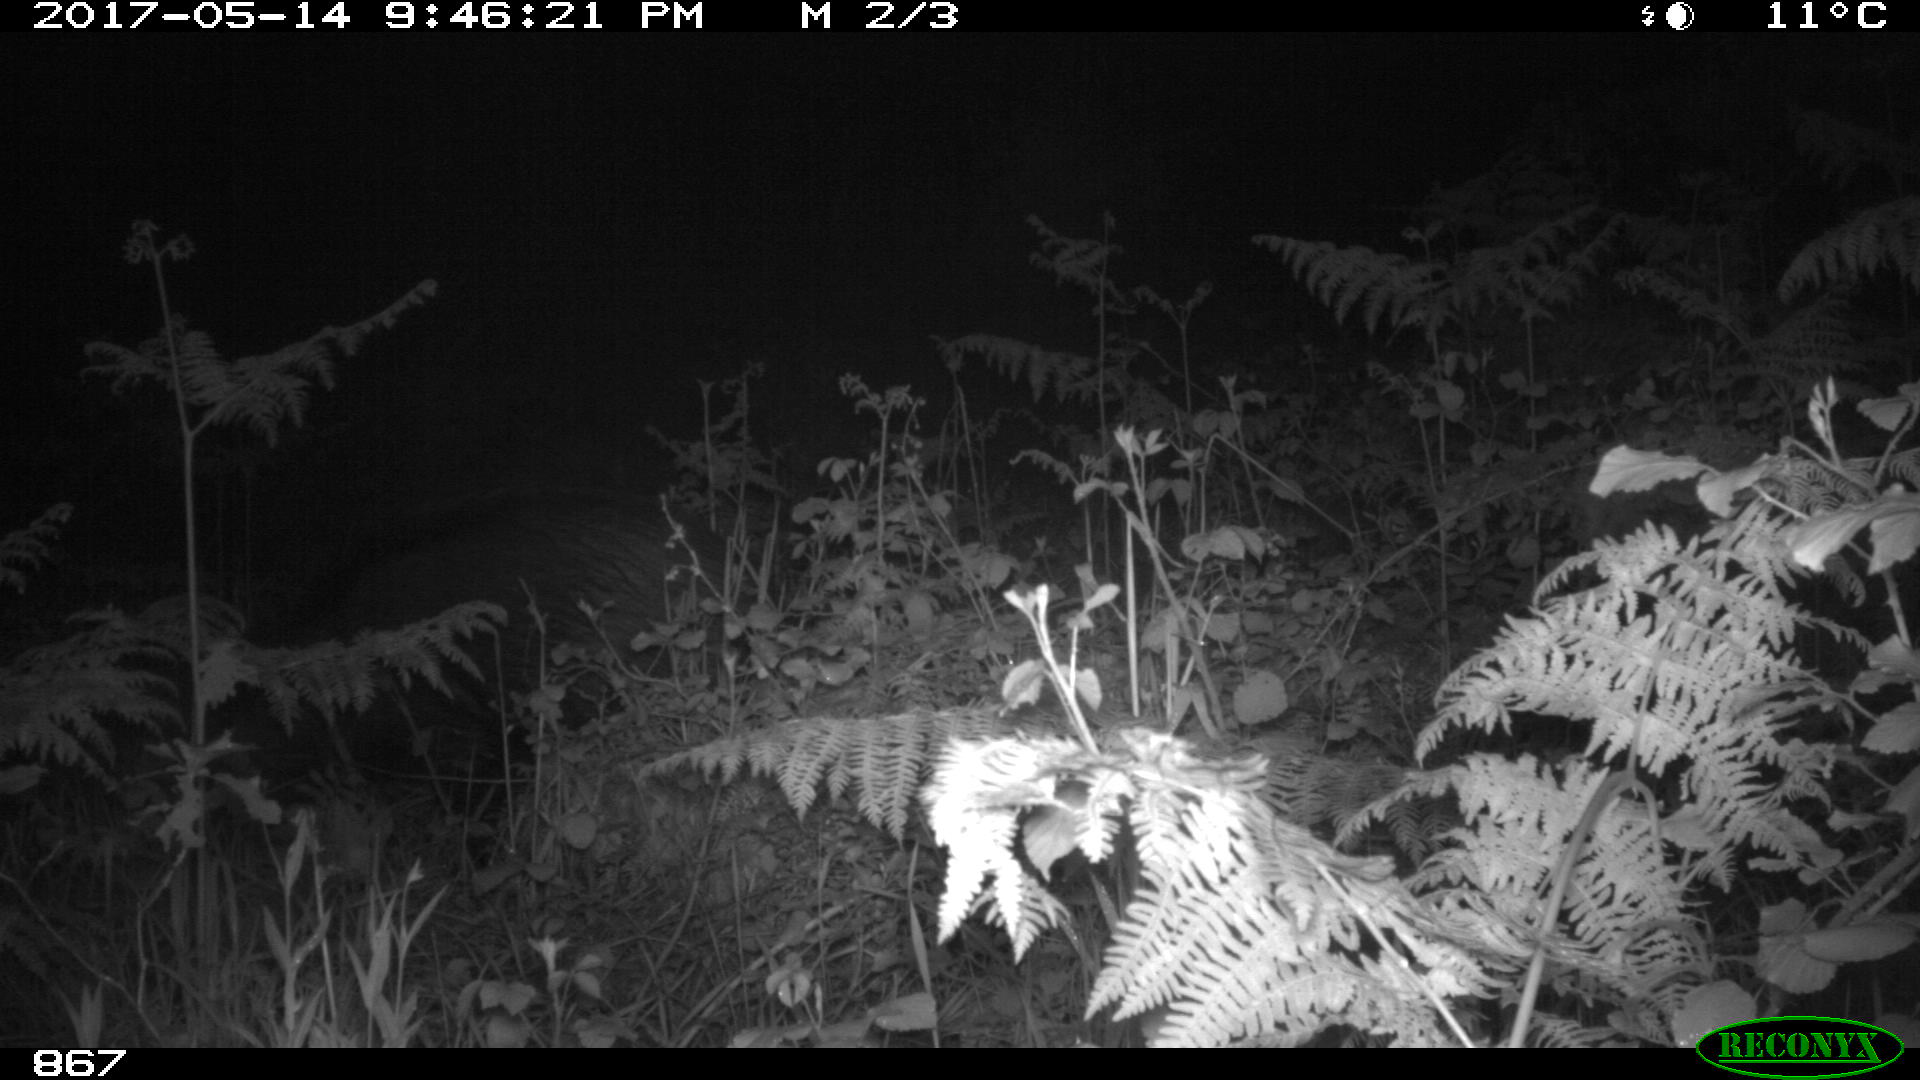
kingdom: Animalia
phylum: Chordata
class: Mammalia
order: Artiodactyla
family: Suidae
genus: Sus
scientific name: Sus scrofa
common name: Wild boar
